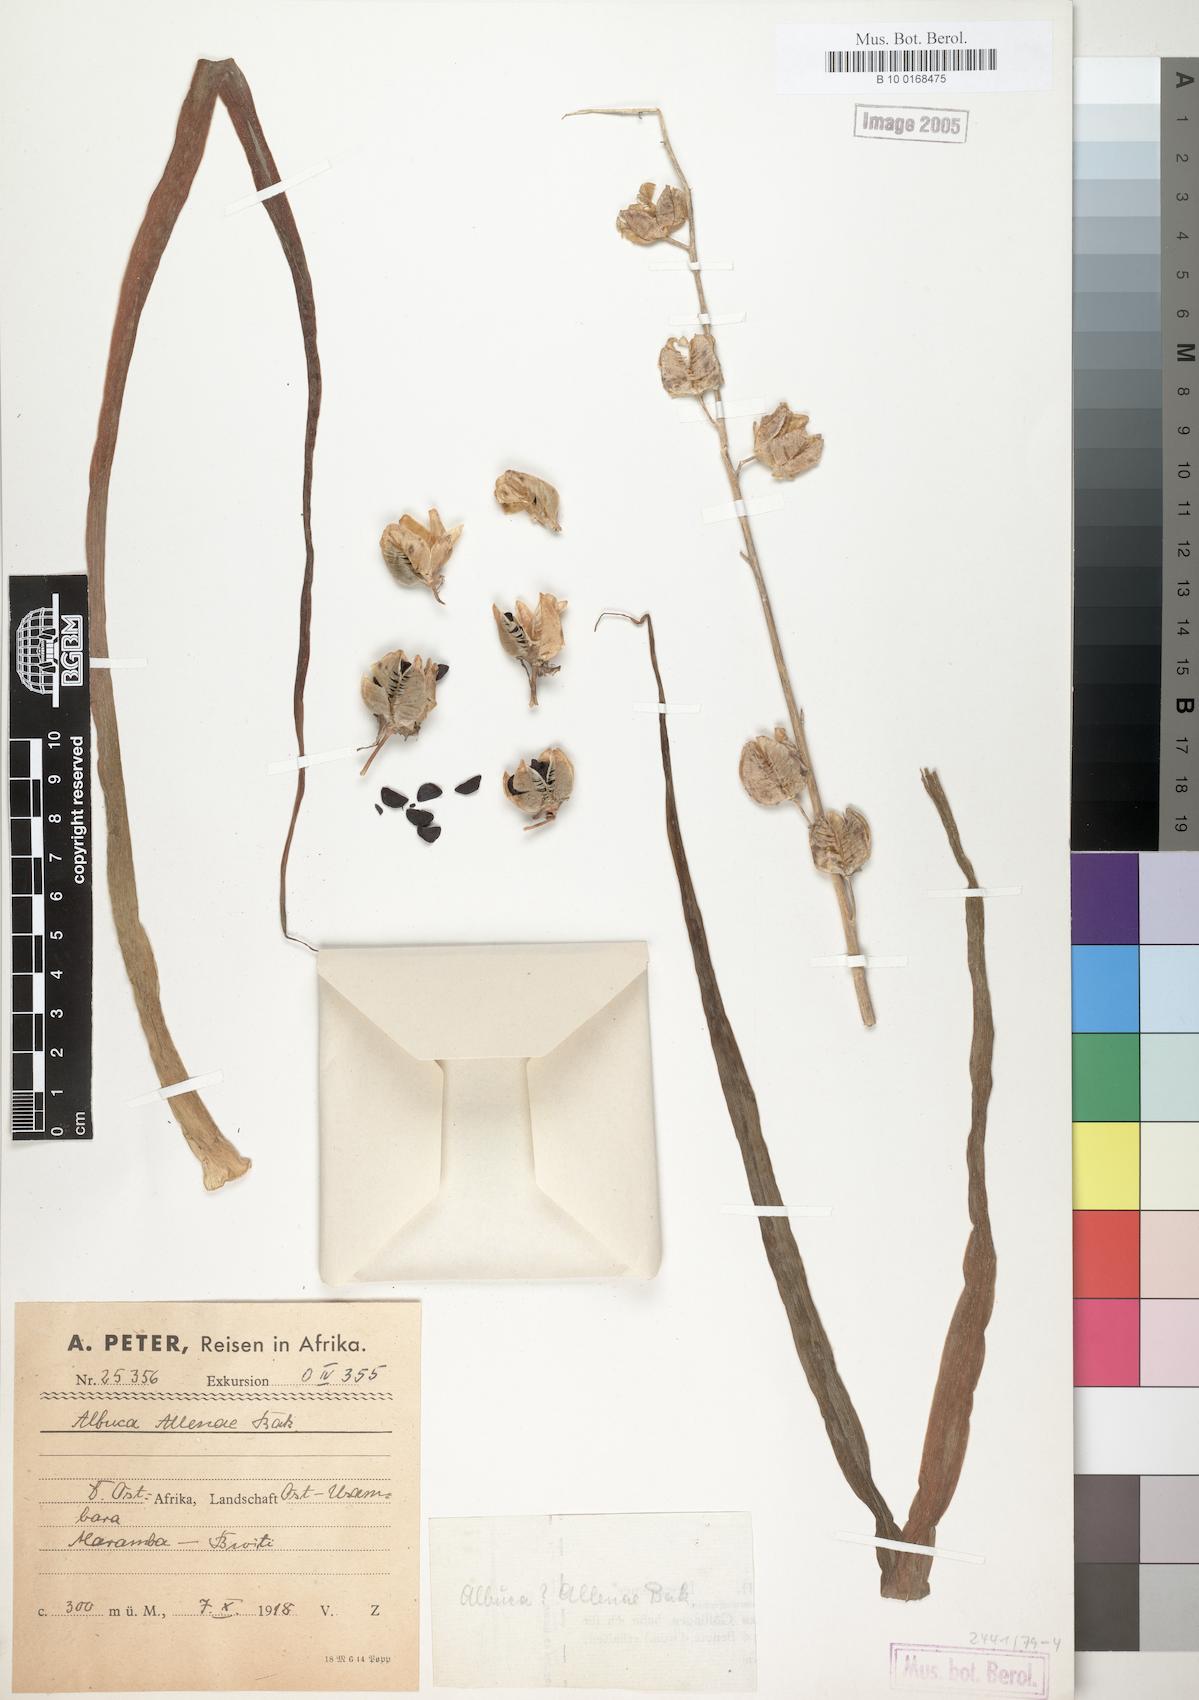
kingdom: Plantae
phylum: Tracheophyta
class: Liliopsida
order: Asparagales
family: Asparagaceae
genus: Albuca
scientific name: Albuca abyssinica
